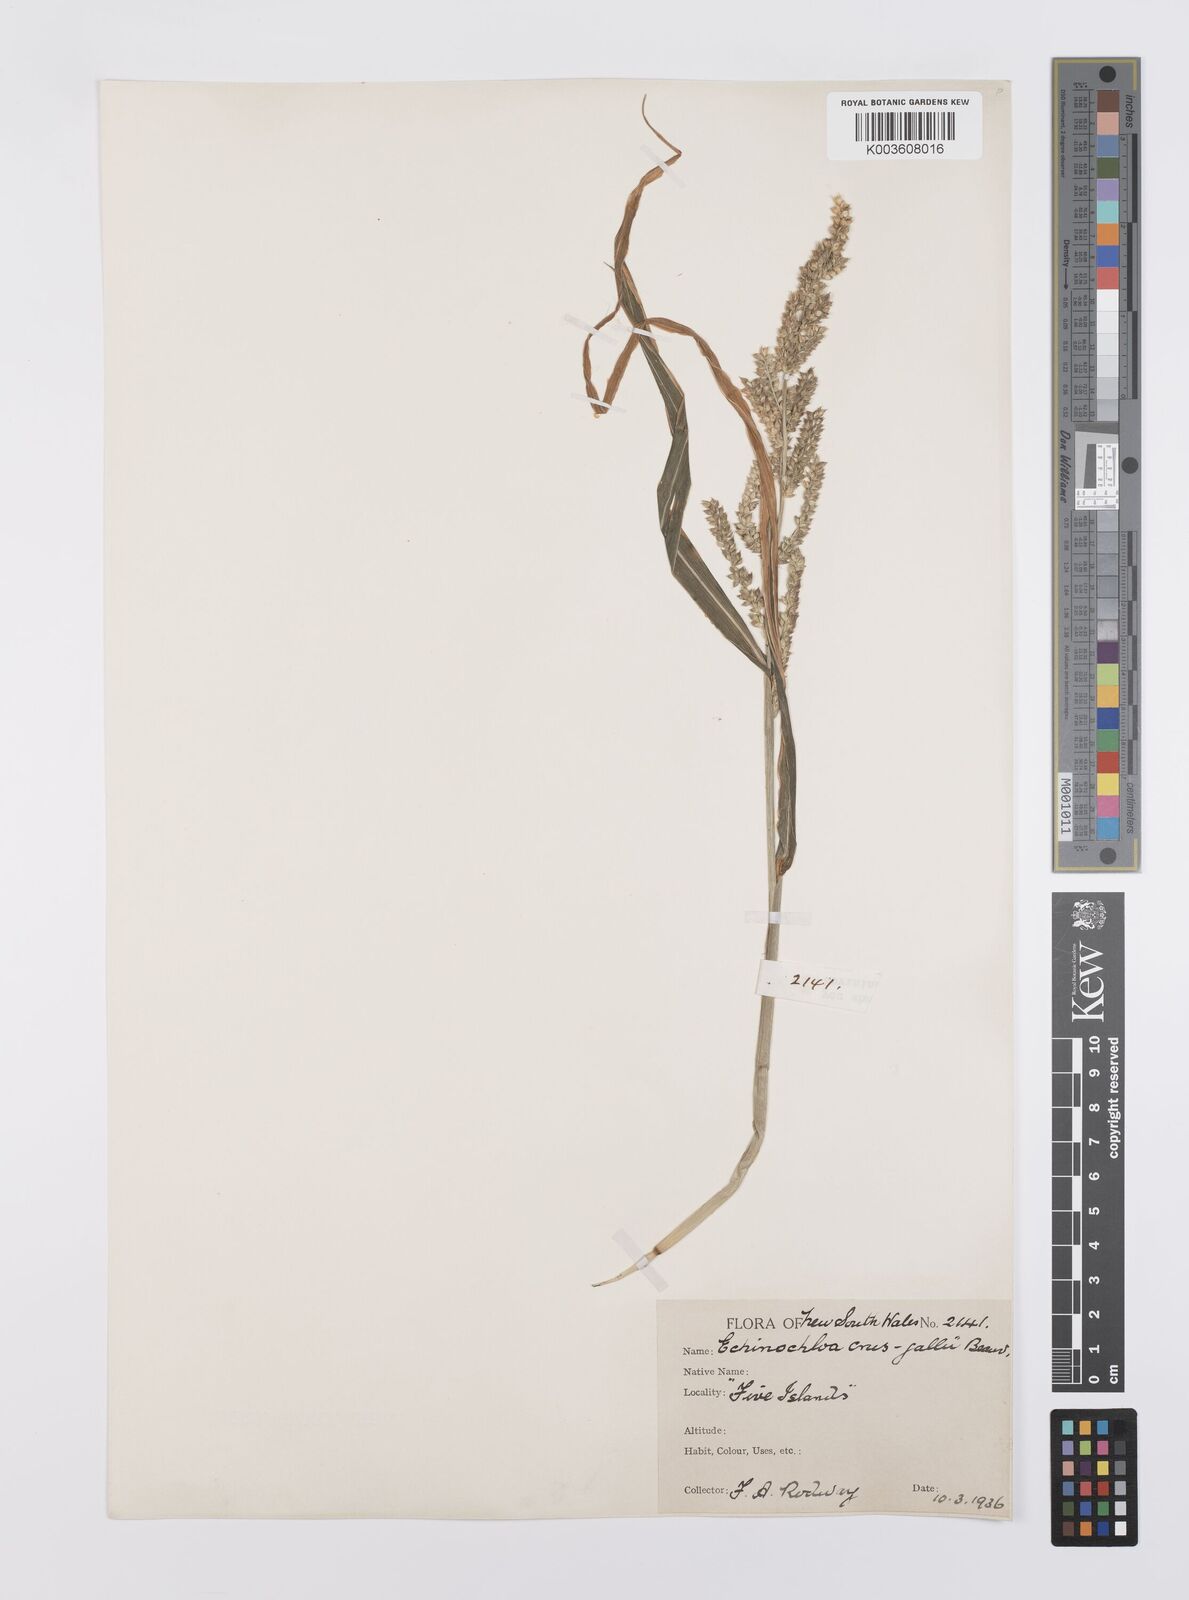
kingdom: Plantae
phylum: Tracheophyta
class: Liliopsida
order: Poales
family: Poaceae
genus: Echinochloa
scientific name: Echinochloa crus-galli
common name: Cockspur
